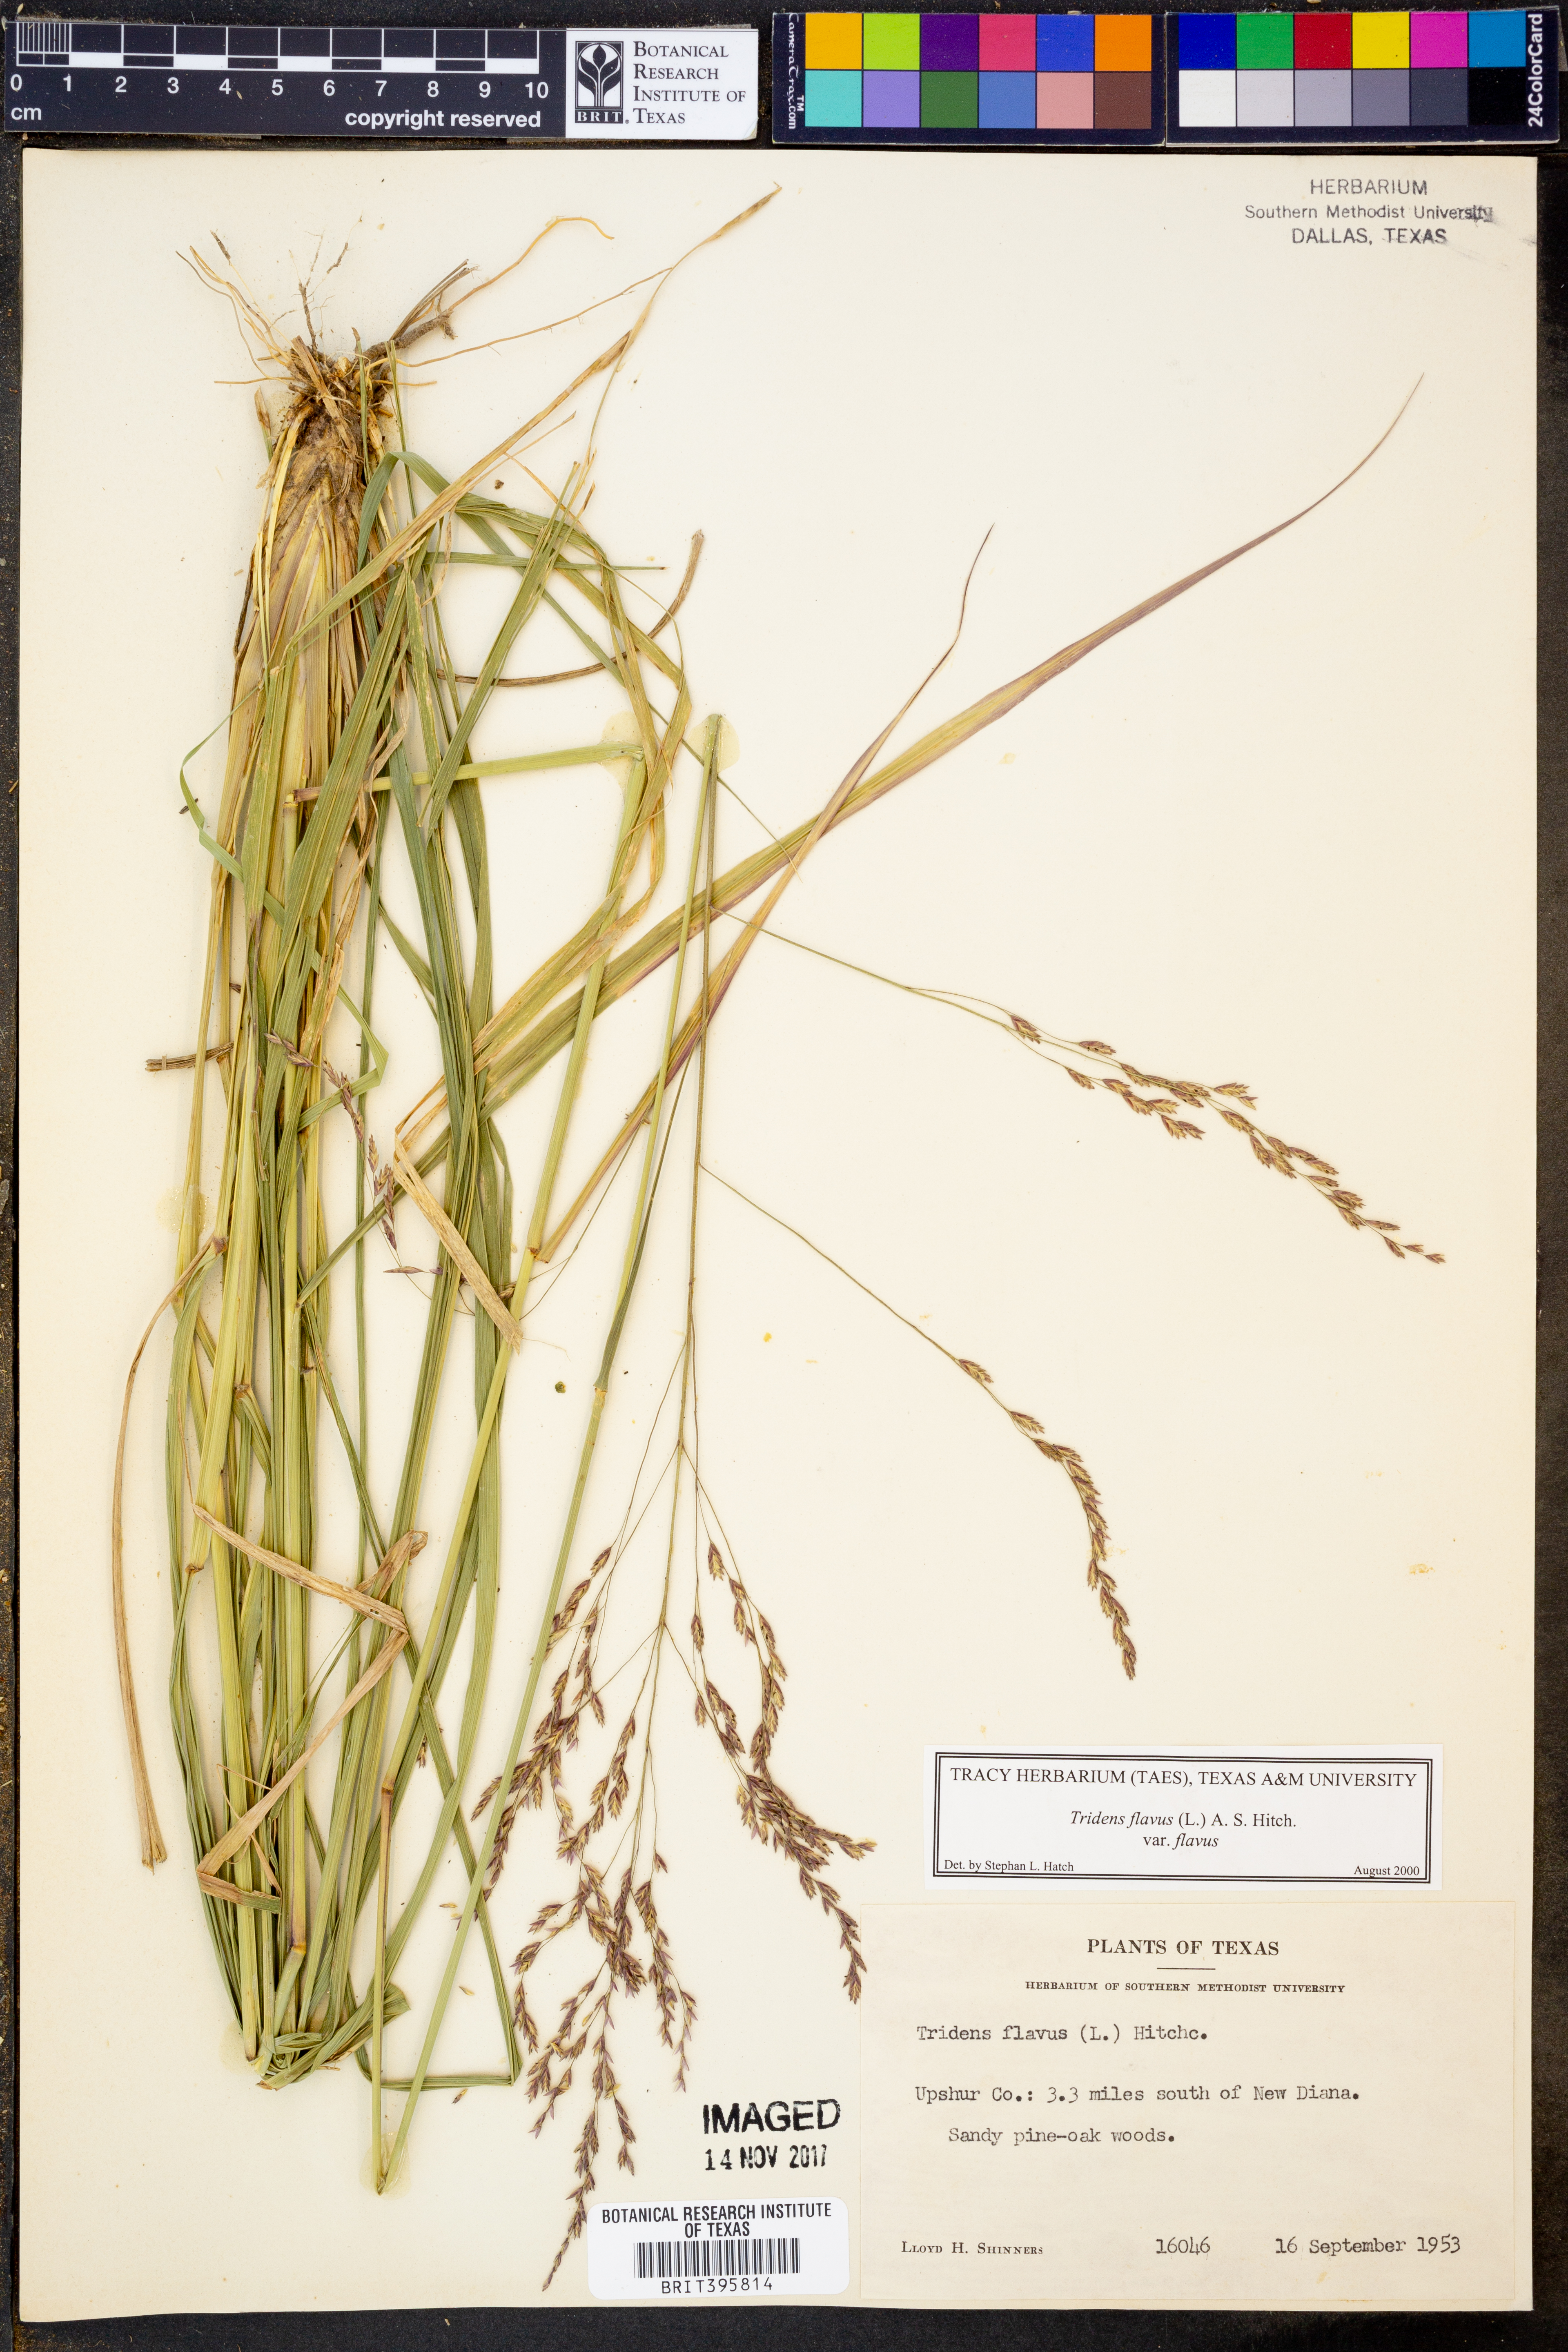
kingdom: Plantae
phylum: Tracheophyta
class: Liliopsida
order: Poales
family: Poaceae
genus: Tridens
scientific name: Tridens flavus
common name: Purpletop
